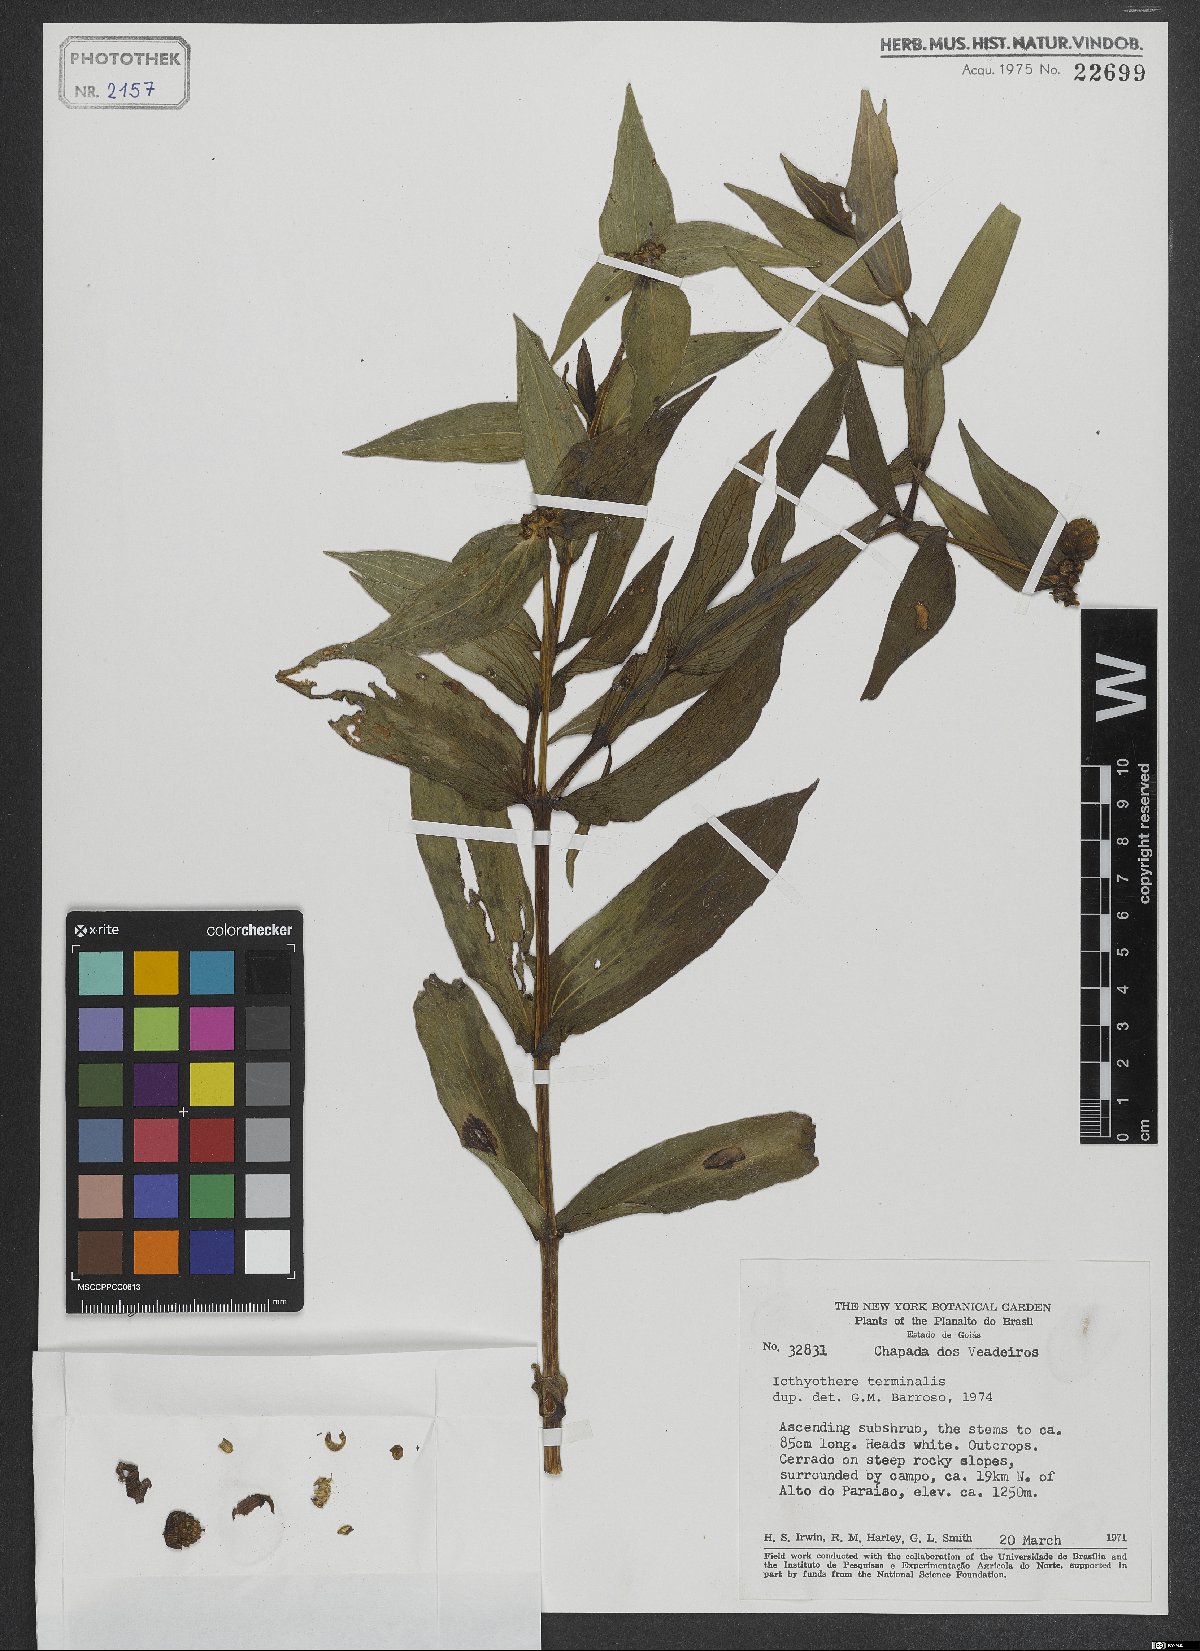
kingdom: Plantae
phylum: Tracheophyta
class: Magnoliopsida
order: Asterales
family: Asteraceae
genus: Ichthyothere
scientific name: Ichthyothere terminalis
